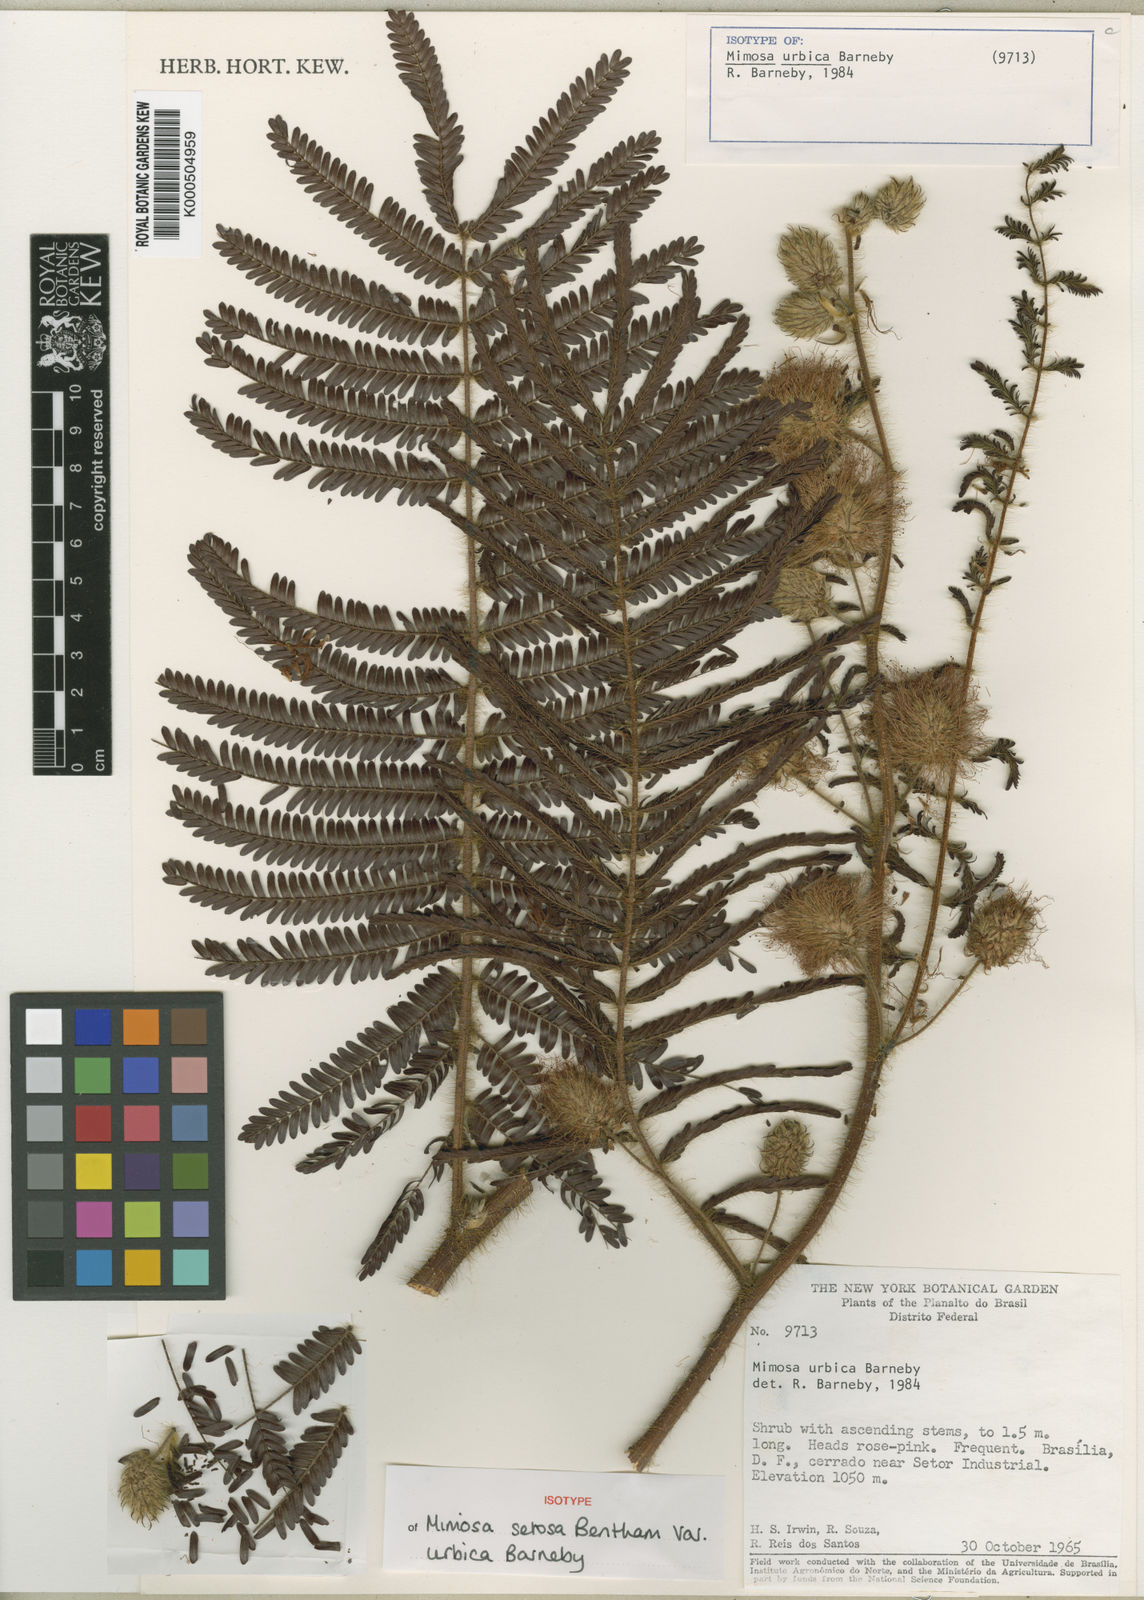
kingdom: Plantae
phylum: Tracheophyta
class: Magnoliopsida
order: Fabales
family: Fabaceae
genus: Mimosa
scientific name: Mimosa urbica
